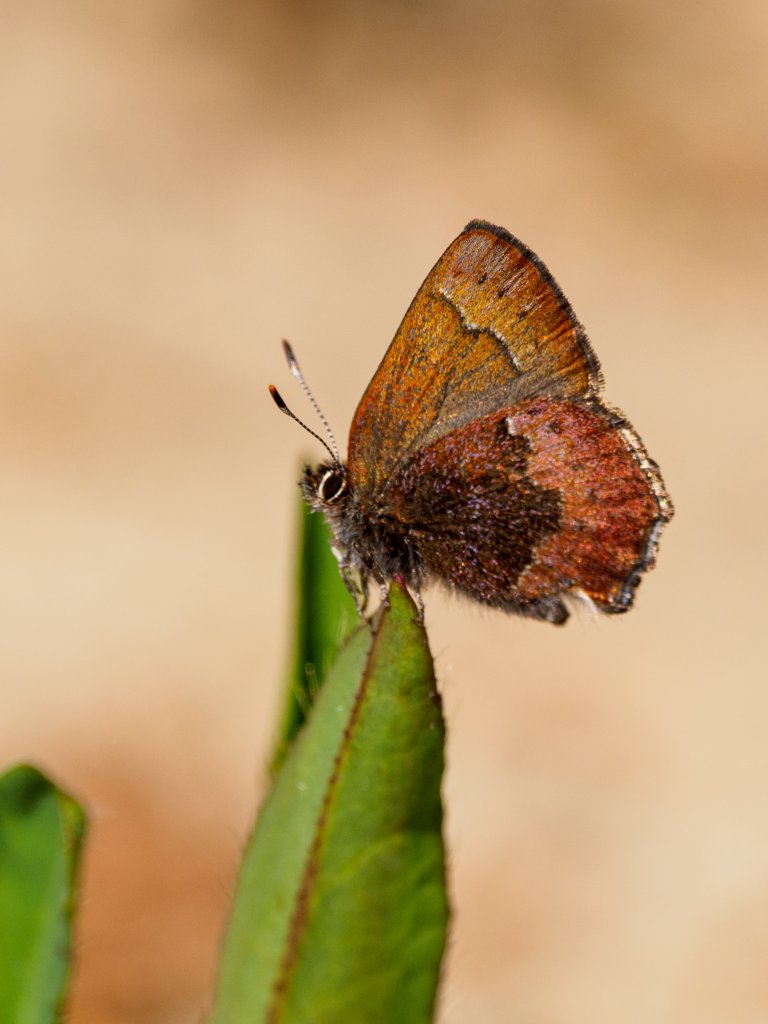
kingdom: Animalia
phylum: Arthropoda
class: Insecta
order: Lepidoptera
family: Lycaenidae
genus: Incisalia
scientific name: Incisalia irioides
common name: Brown Elfin
